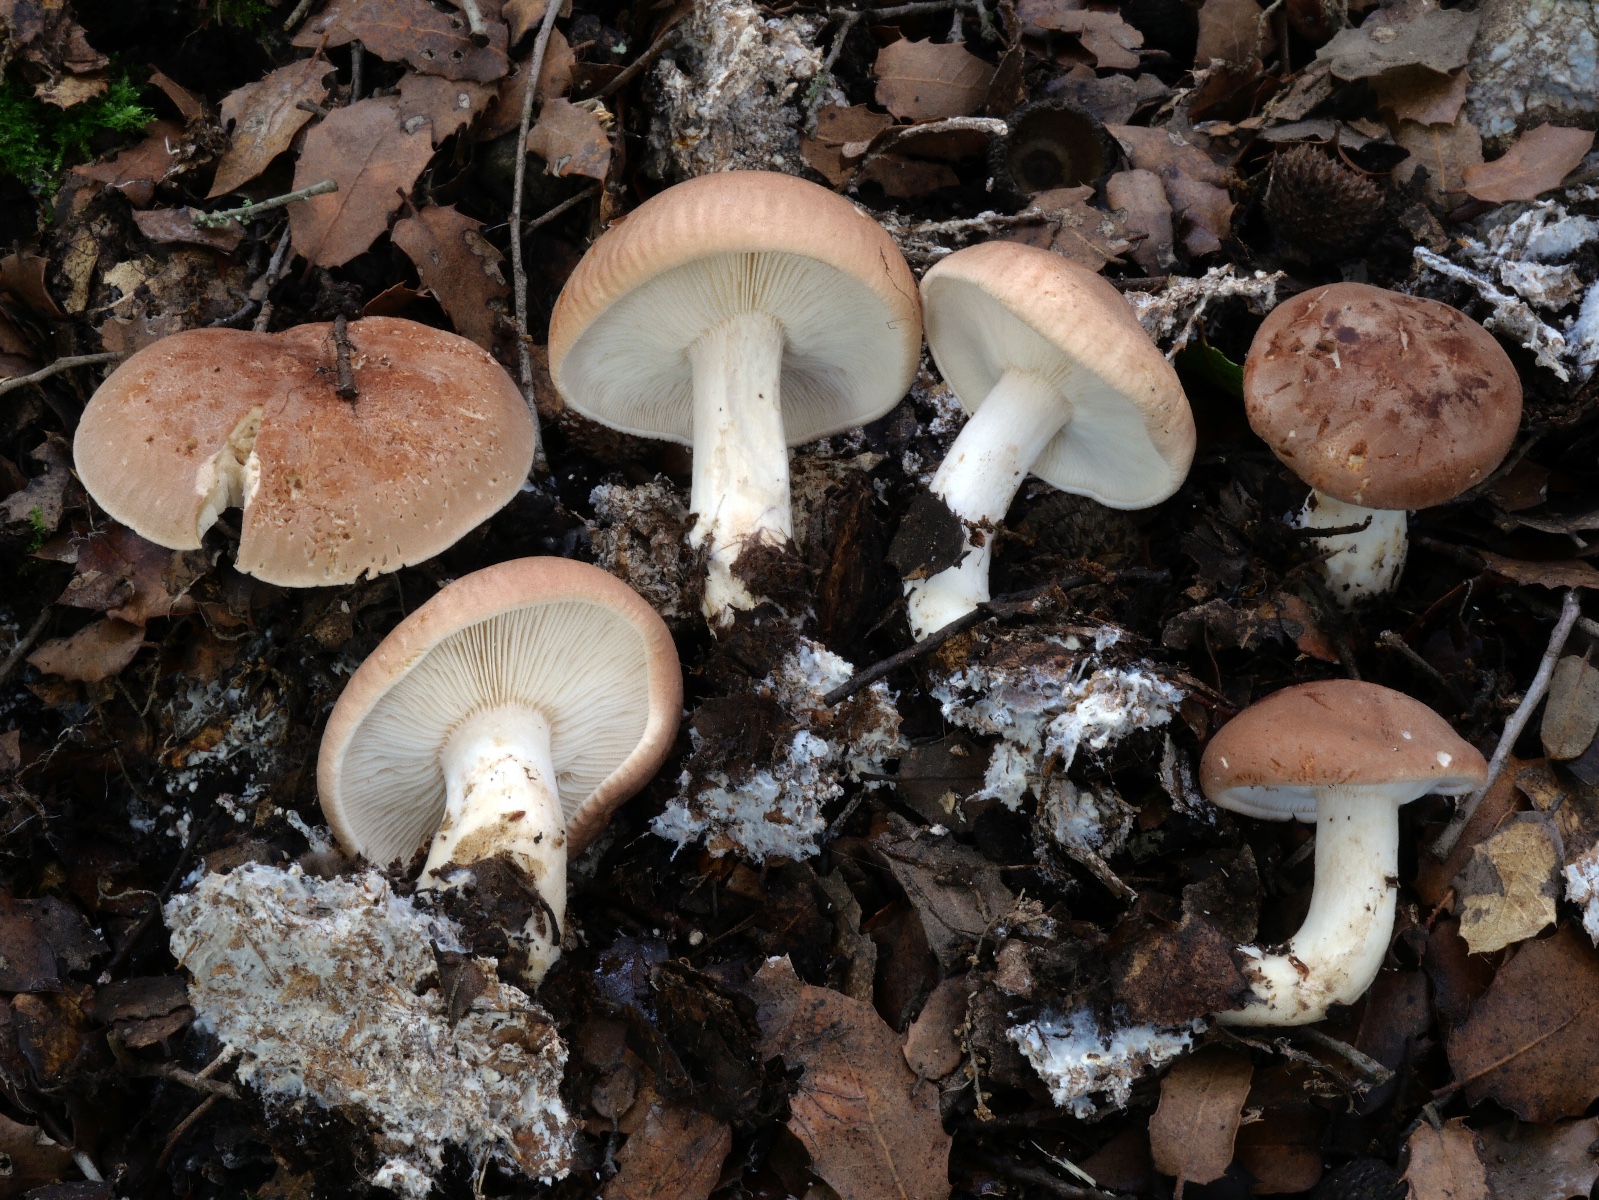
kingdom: Fungi
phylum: Basidiomycota
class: Agaricomycetes
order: Agaricales
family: Tricholomataceae
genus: Leucopaxillus
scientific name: Leucopaxillus gentianeus
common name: bitter tragtridderhat
